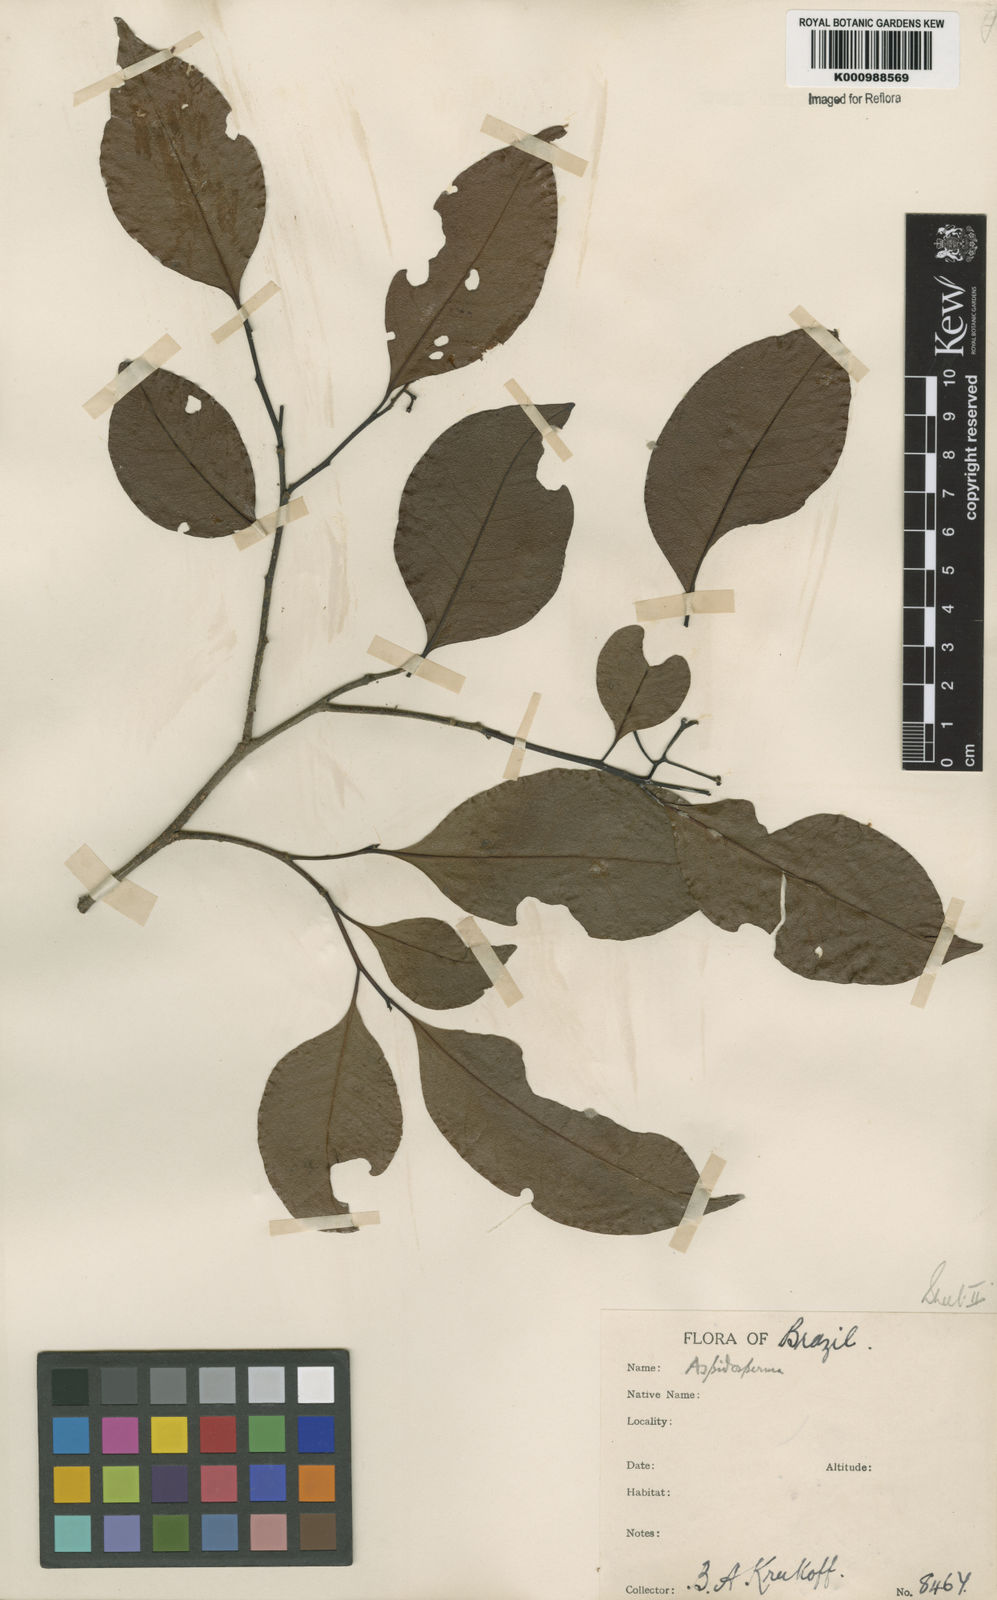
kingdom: Plantae
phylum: Tracheophyta
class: Magnoliopsida
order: Gentianales
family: Apocynaceae
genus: Aspidosperma
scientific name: Aspidosperma
